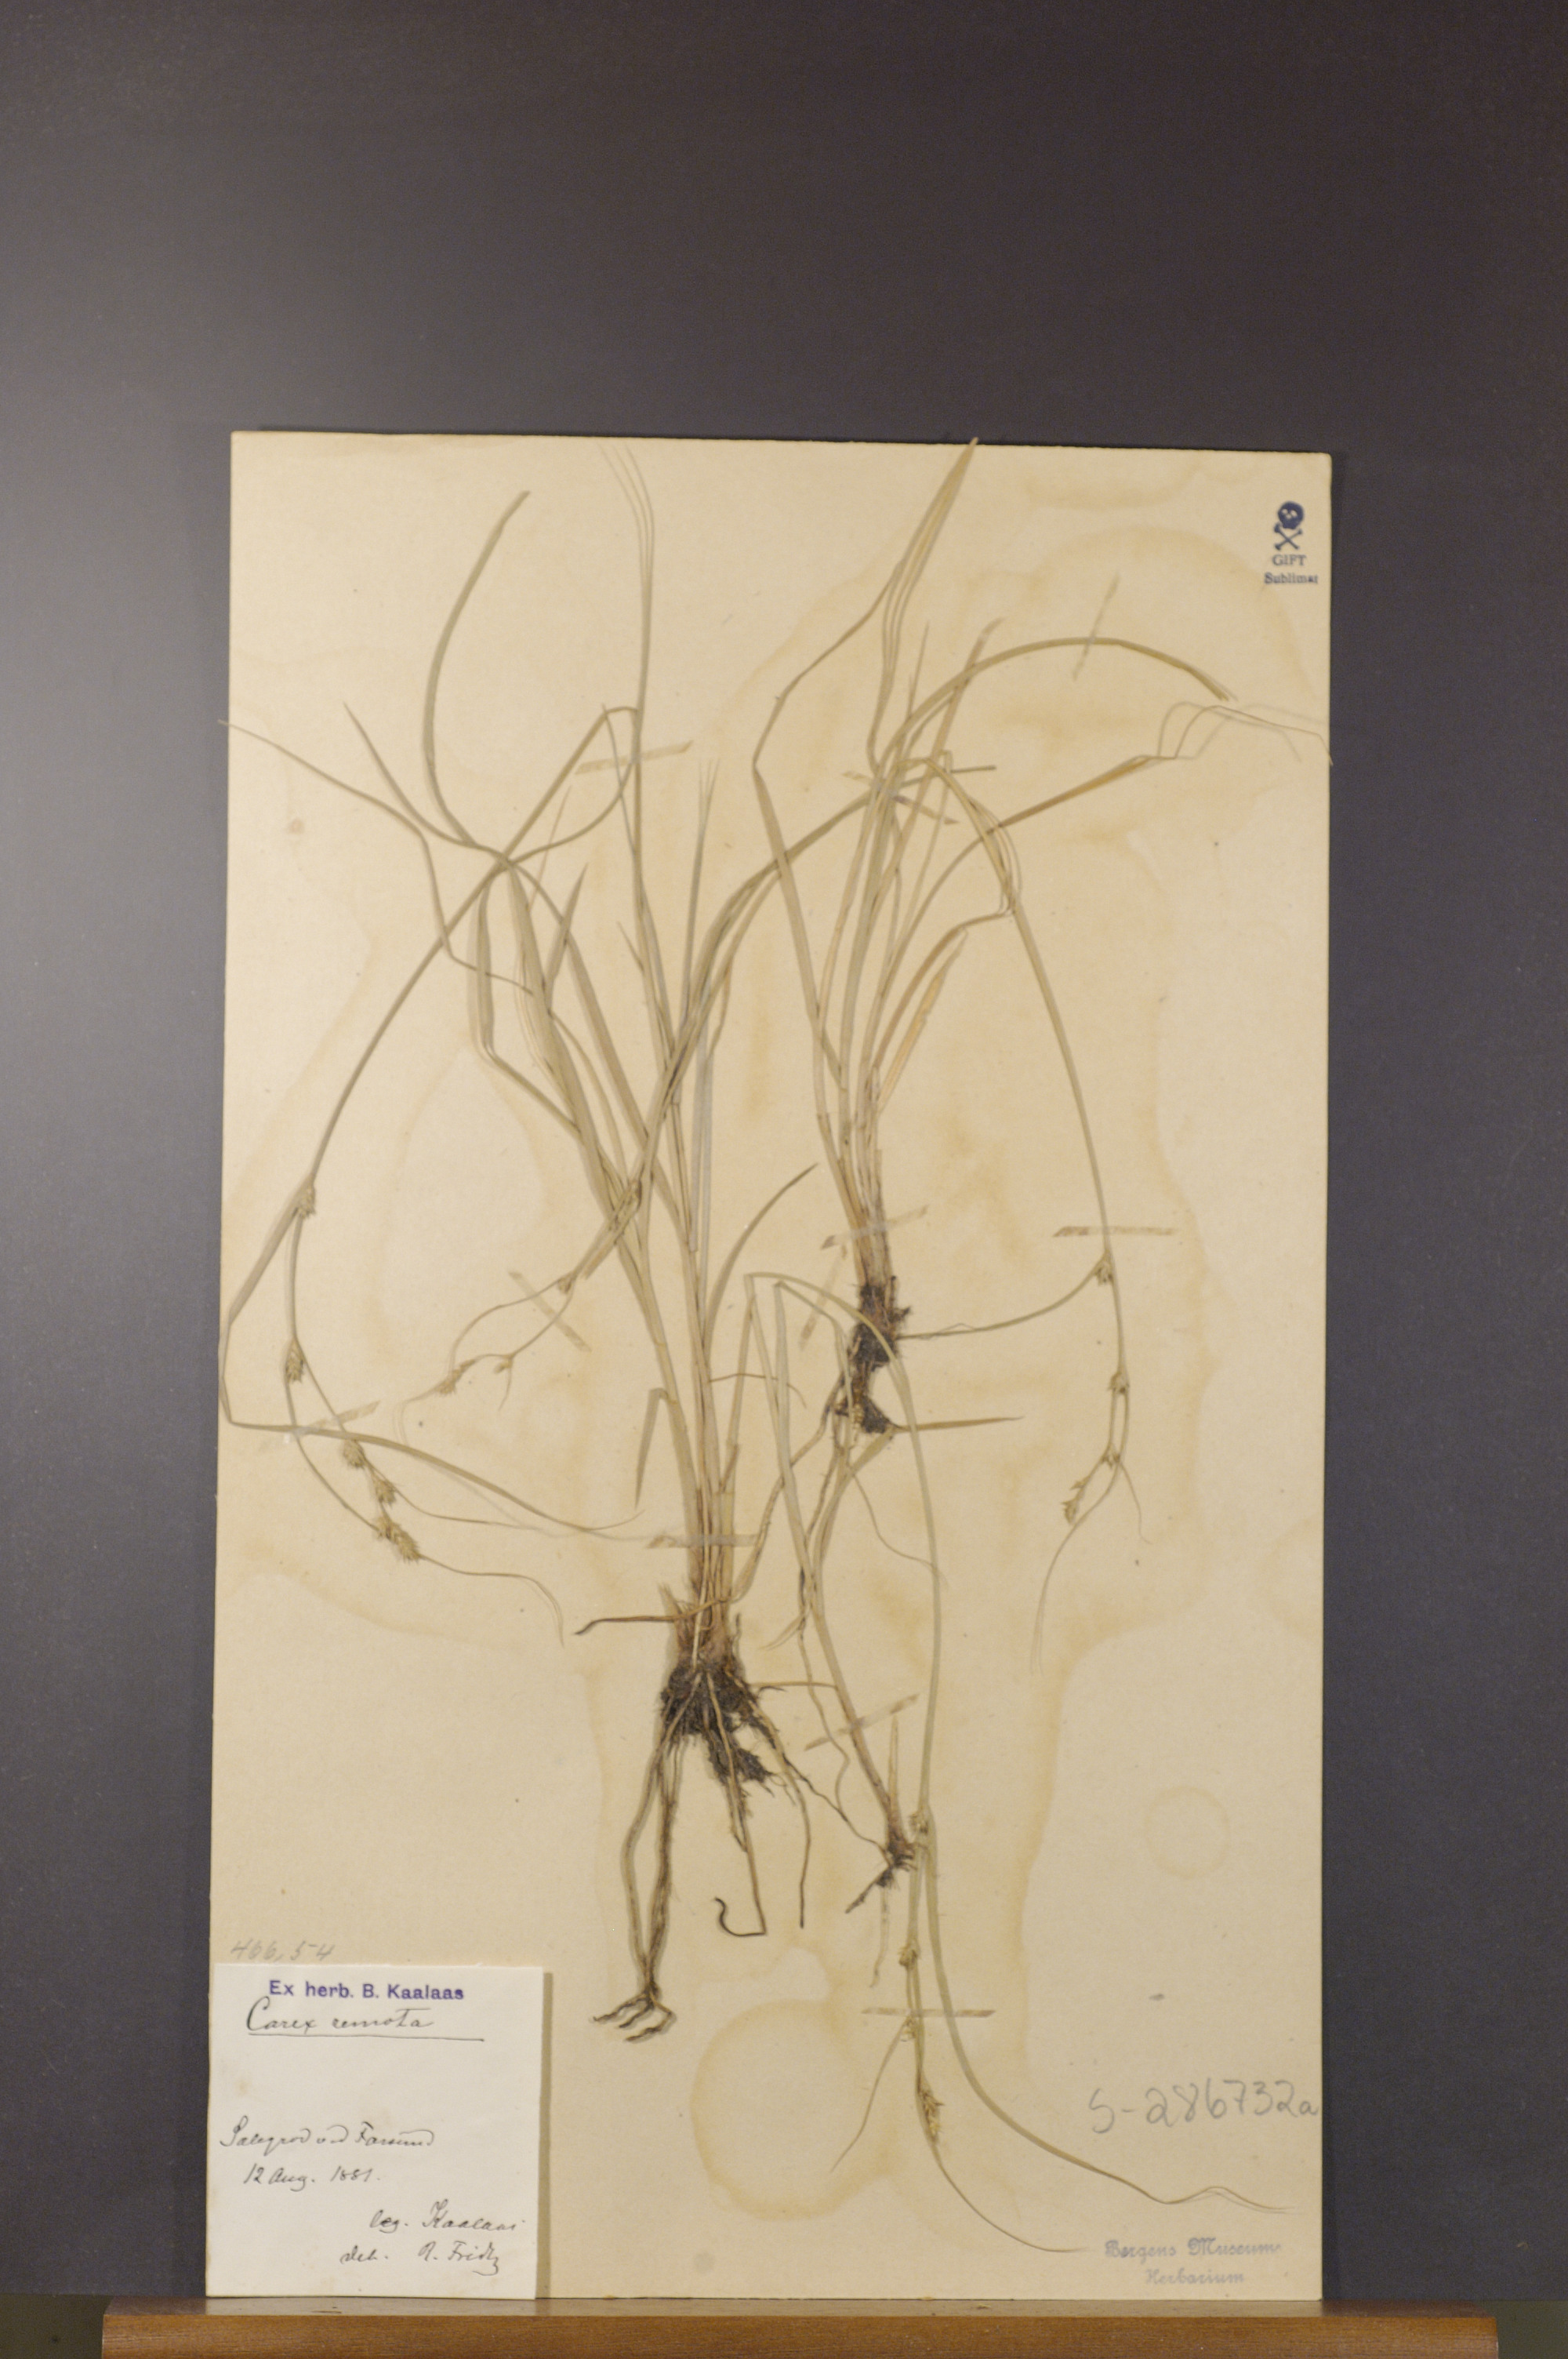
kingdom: Plantae
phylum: Tracheophyta
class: Liliopsida
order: Poales
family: Cyperaceae
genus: Carex
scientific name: Carex remota
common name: Remote sedge
